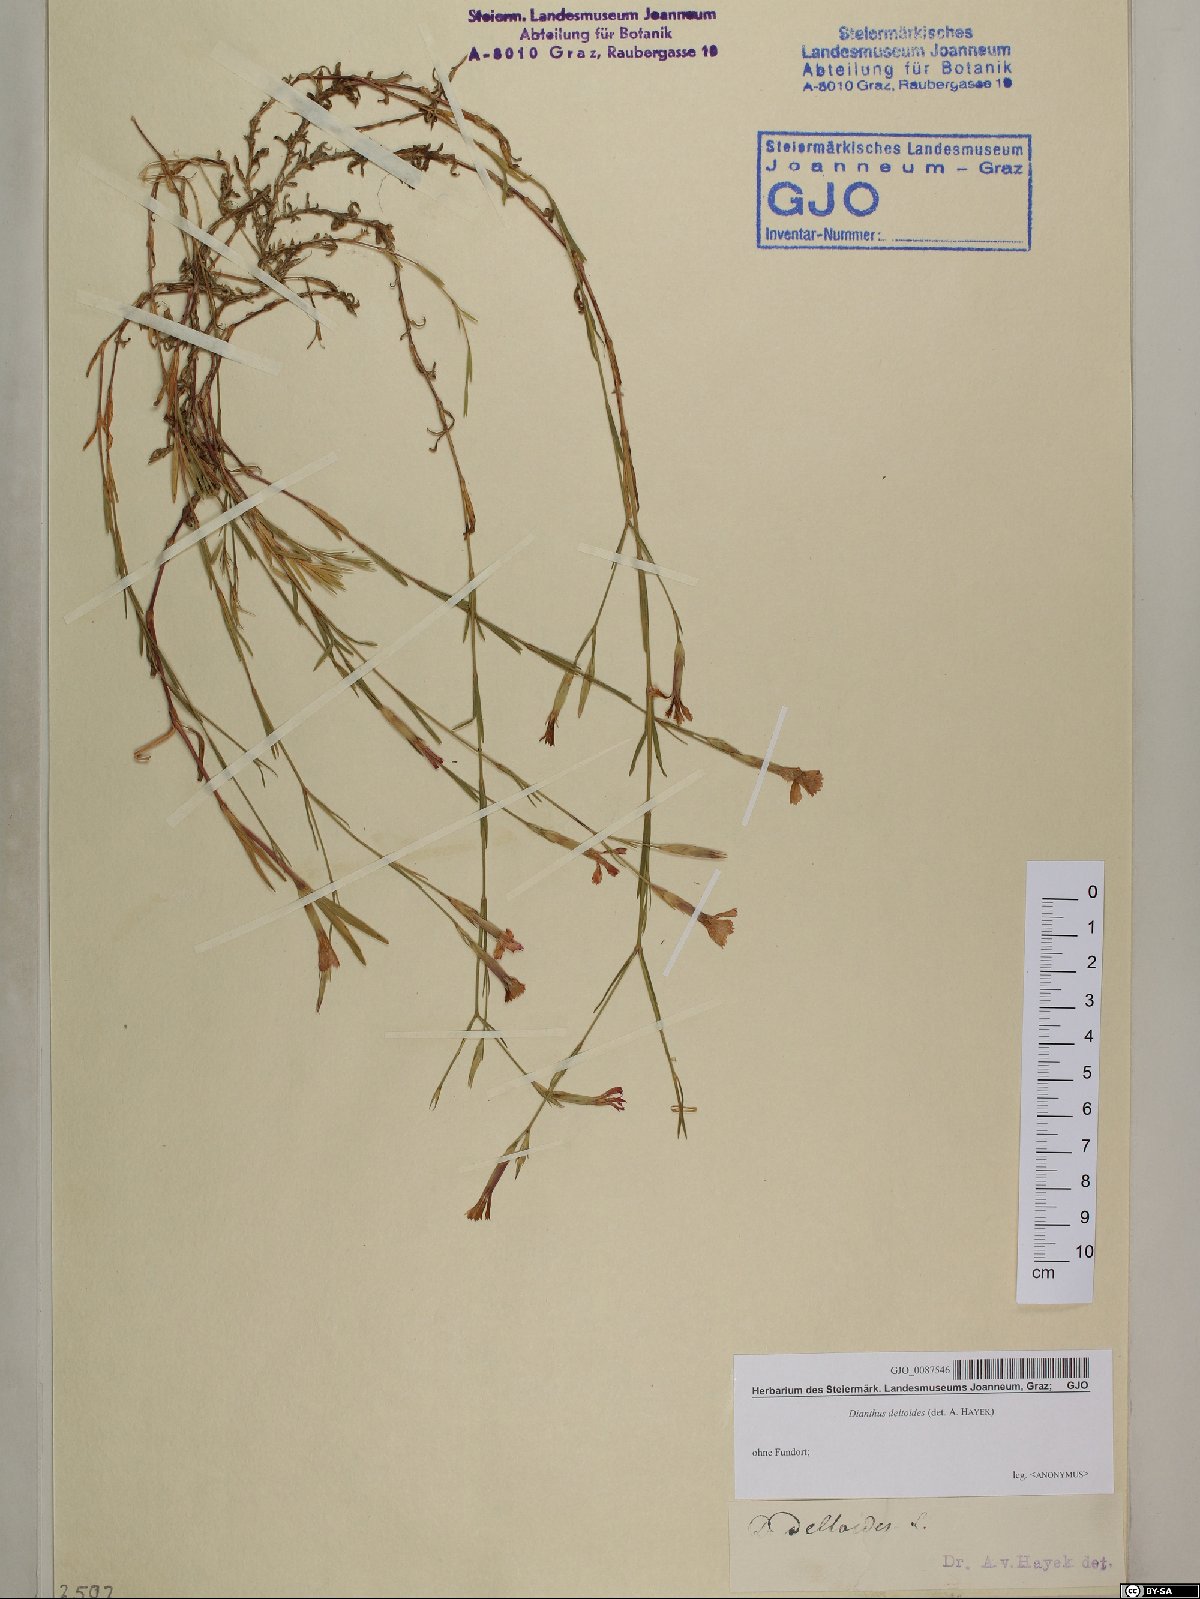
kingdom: Plantae
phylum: Tracheophyta
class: Magnoliopsida
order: Caryophyllales
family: Caryophyllaceae
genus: Dianthus
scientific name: Dianthus deltoides
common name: Maiden pink
